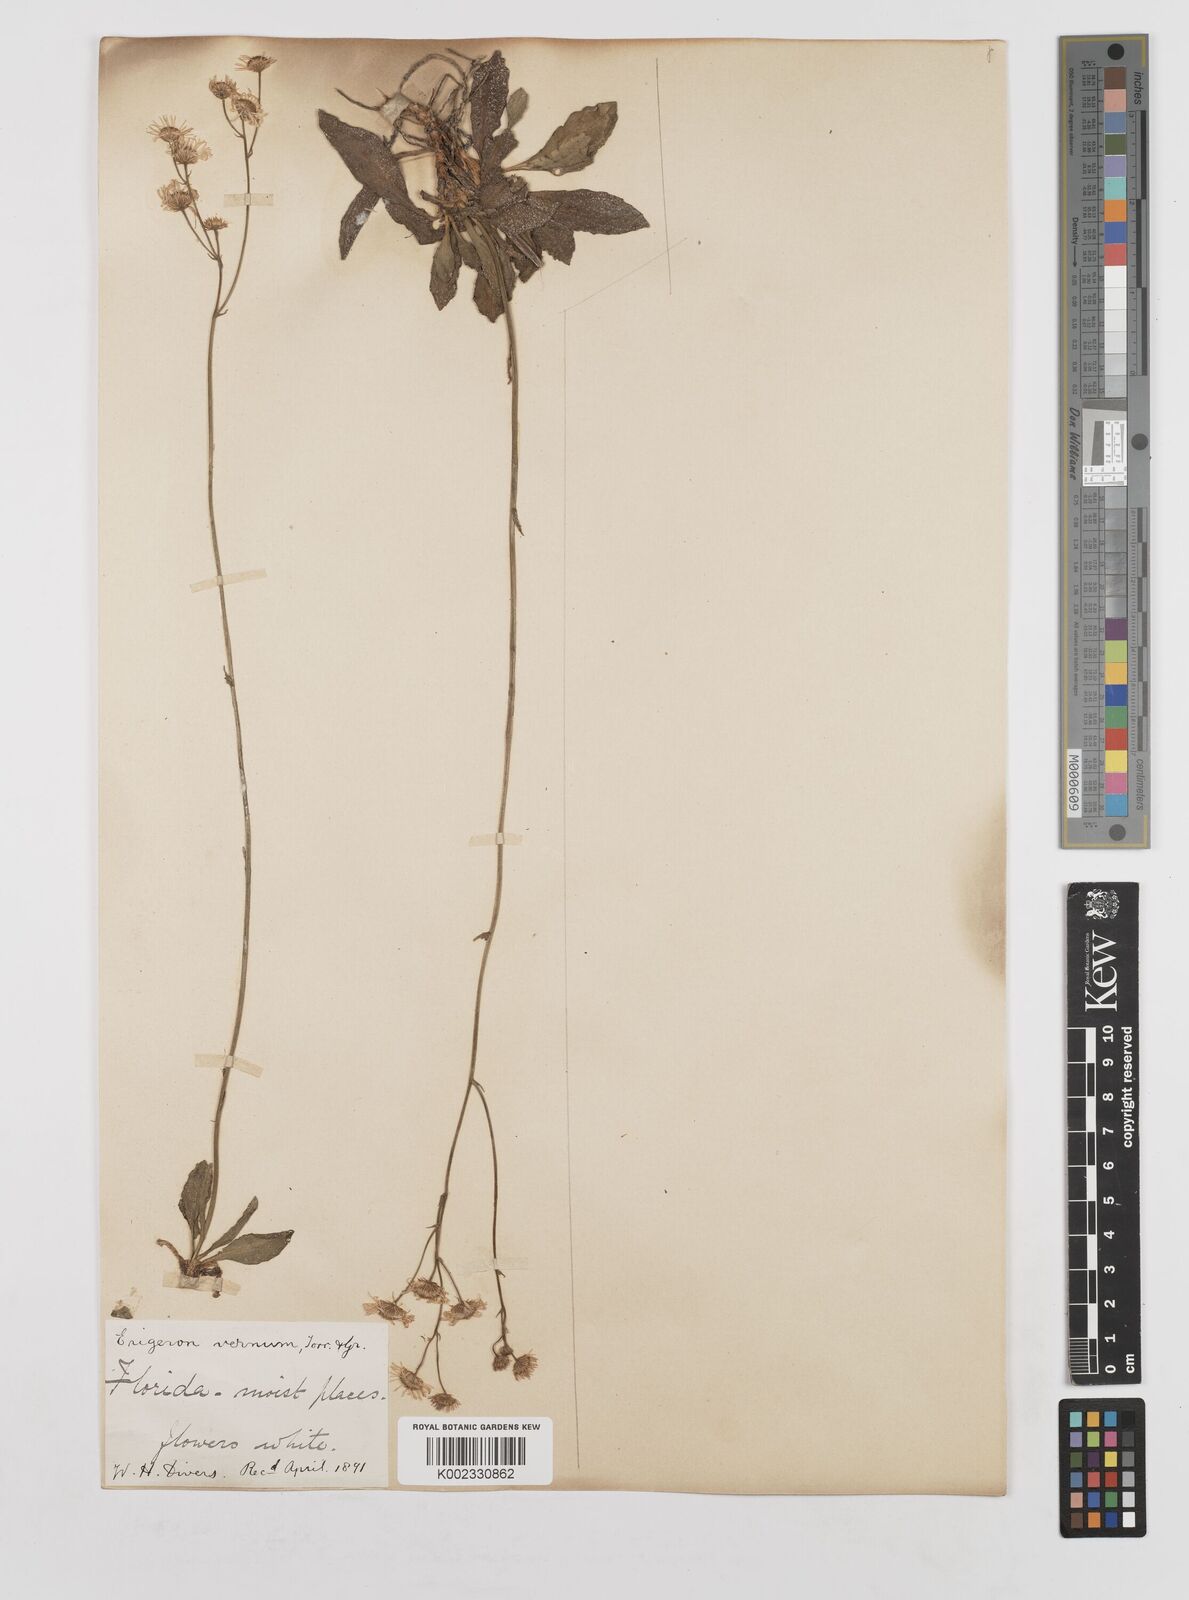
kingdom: Plantae
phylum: Tracheophyta
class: Magnoliopsida
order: Asterales
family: Asteraceae
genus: Erigeron
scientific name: Erigeron vernus
